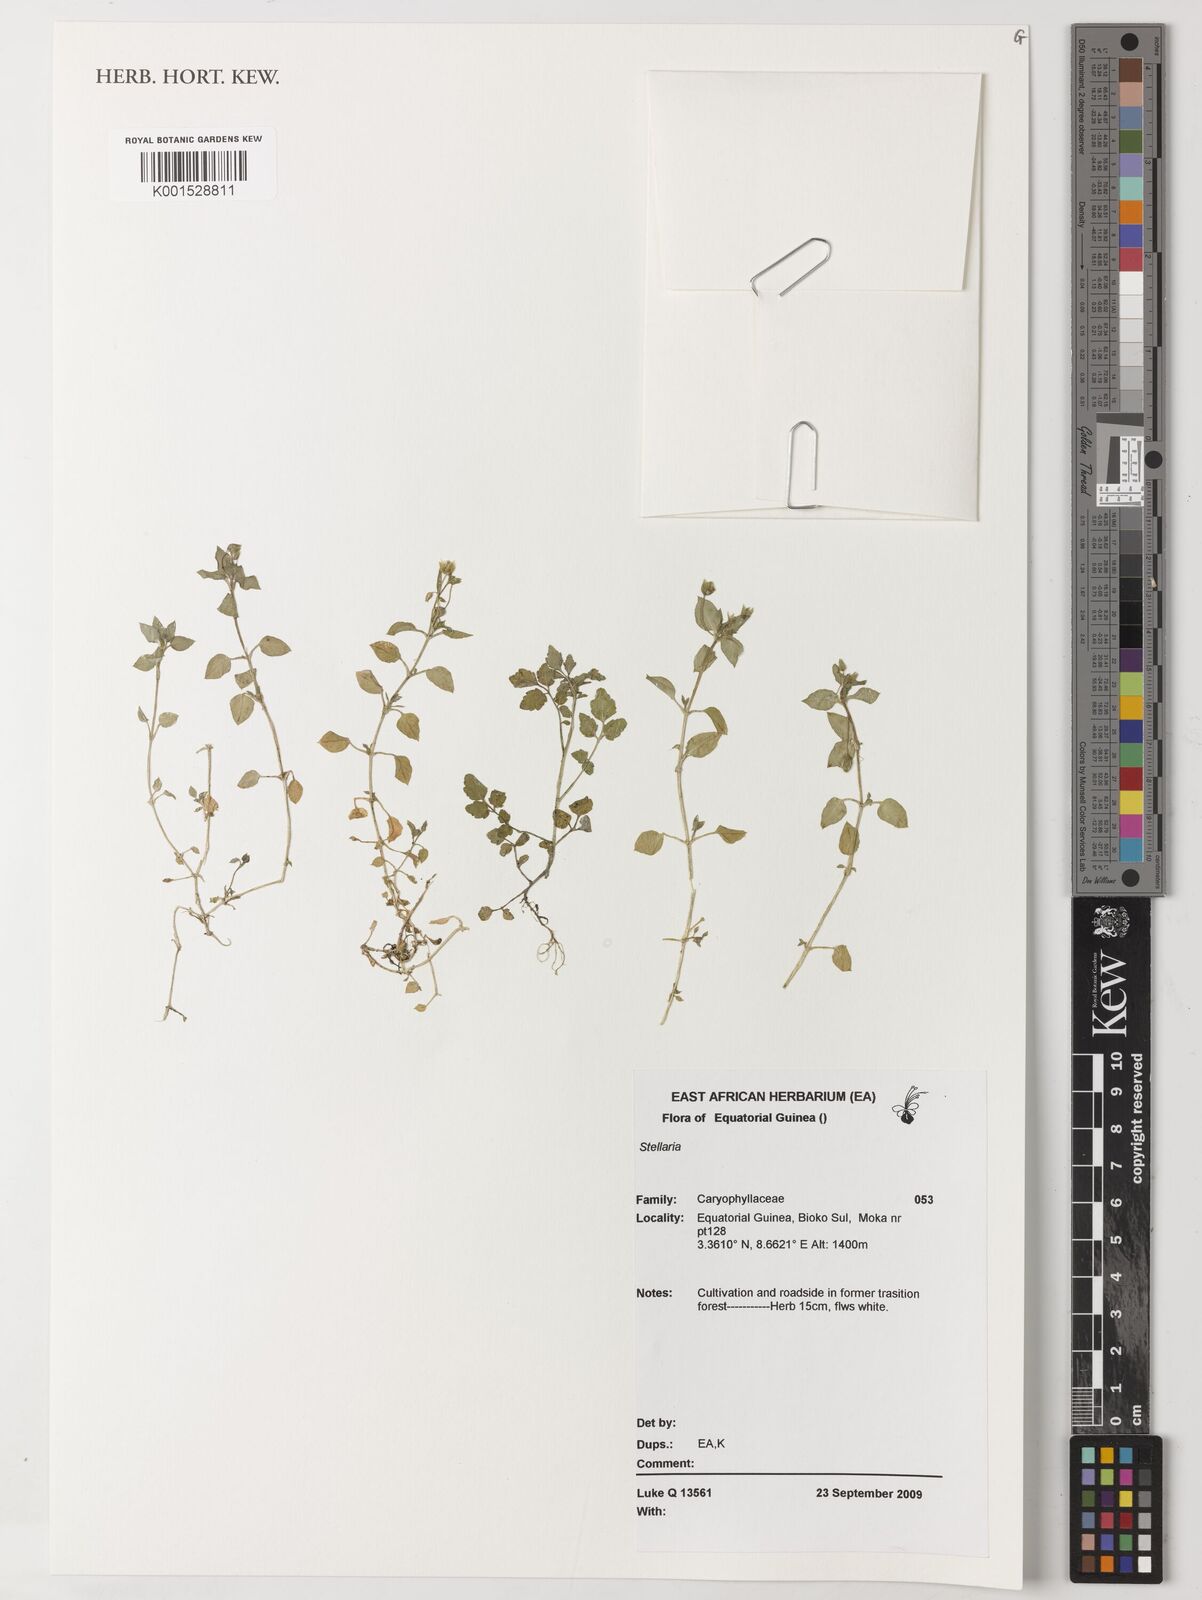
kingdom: Plantae
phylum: Tracheophyta
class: Magnoliopsida
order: Caryophyllales
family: Caryophyllaceae
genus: Stellaria
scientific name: Stellaria
